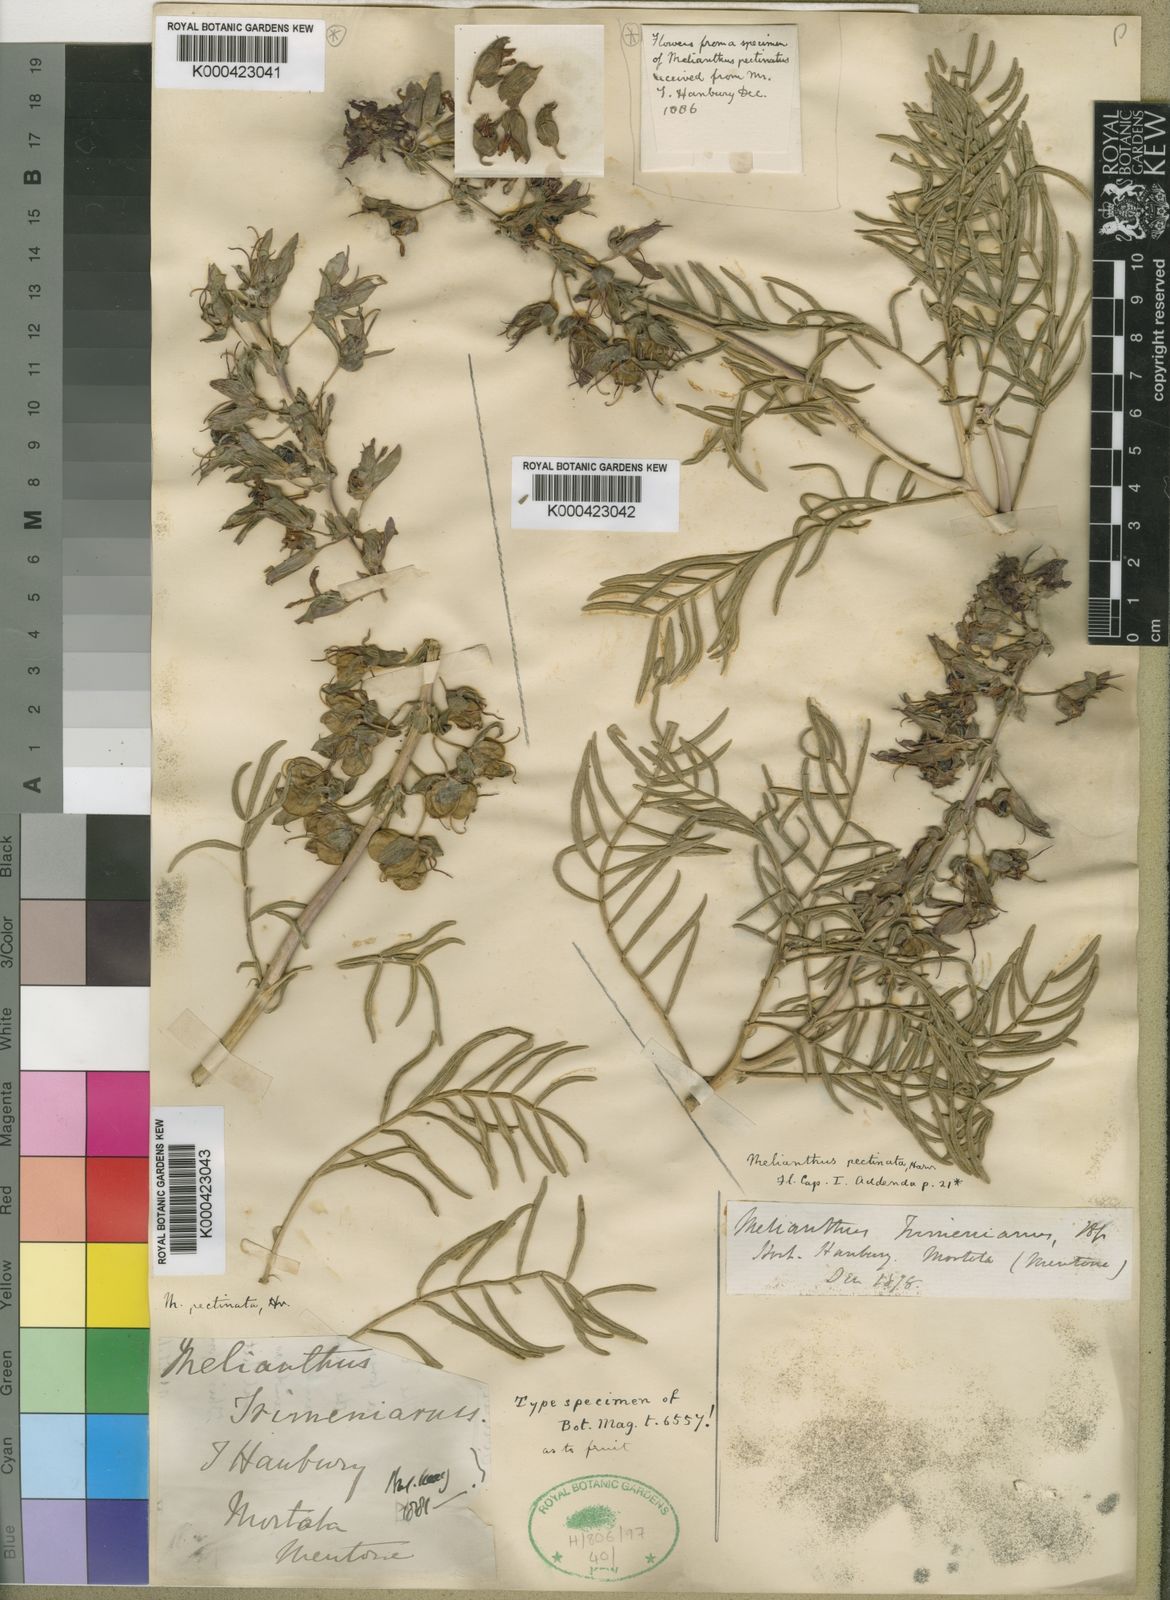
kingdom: Plantae
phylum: Tracheophyta
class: Magnoliopsida
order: Geraniales
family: Melianthaceae
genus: Melianthus
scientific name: Melianthus pectinatus
